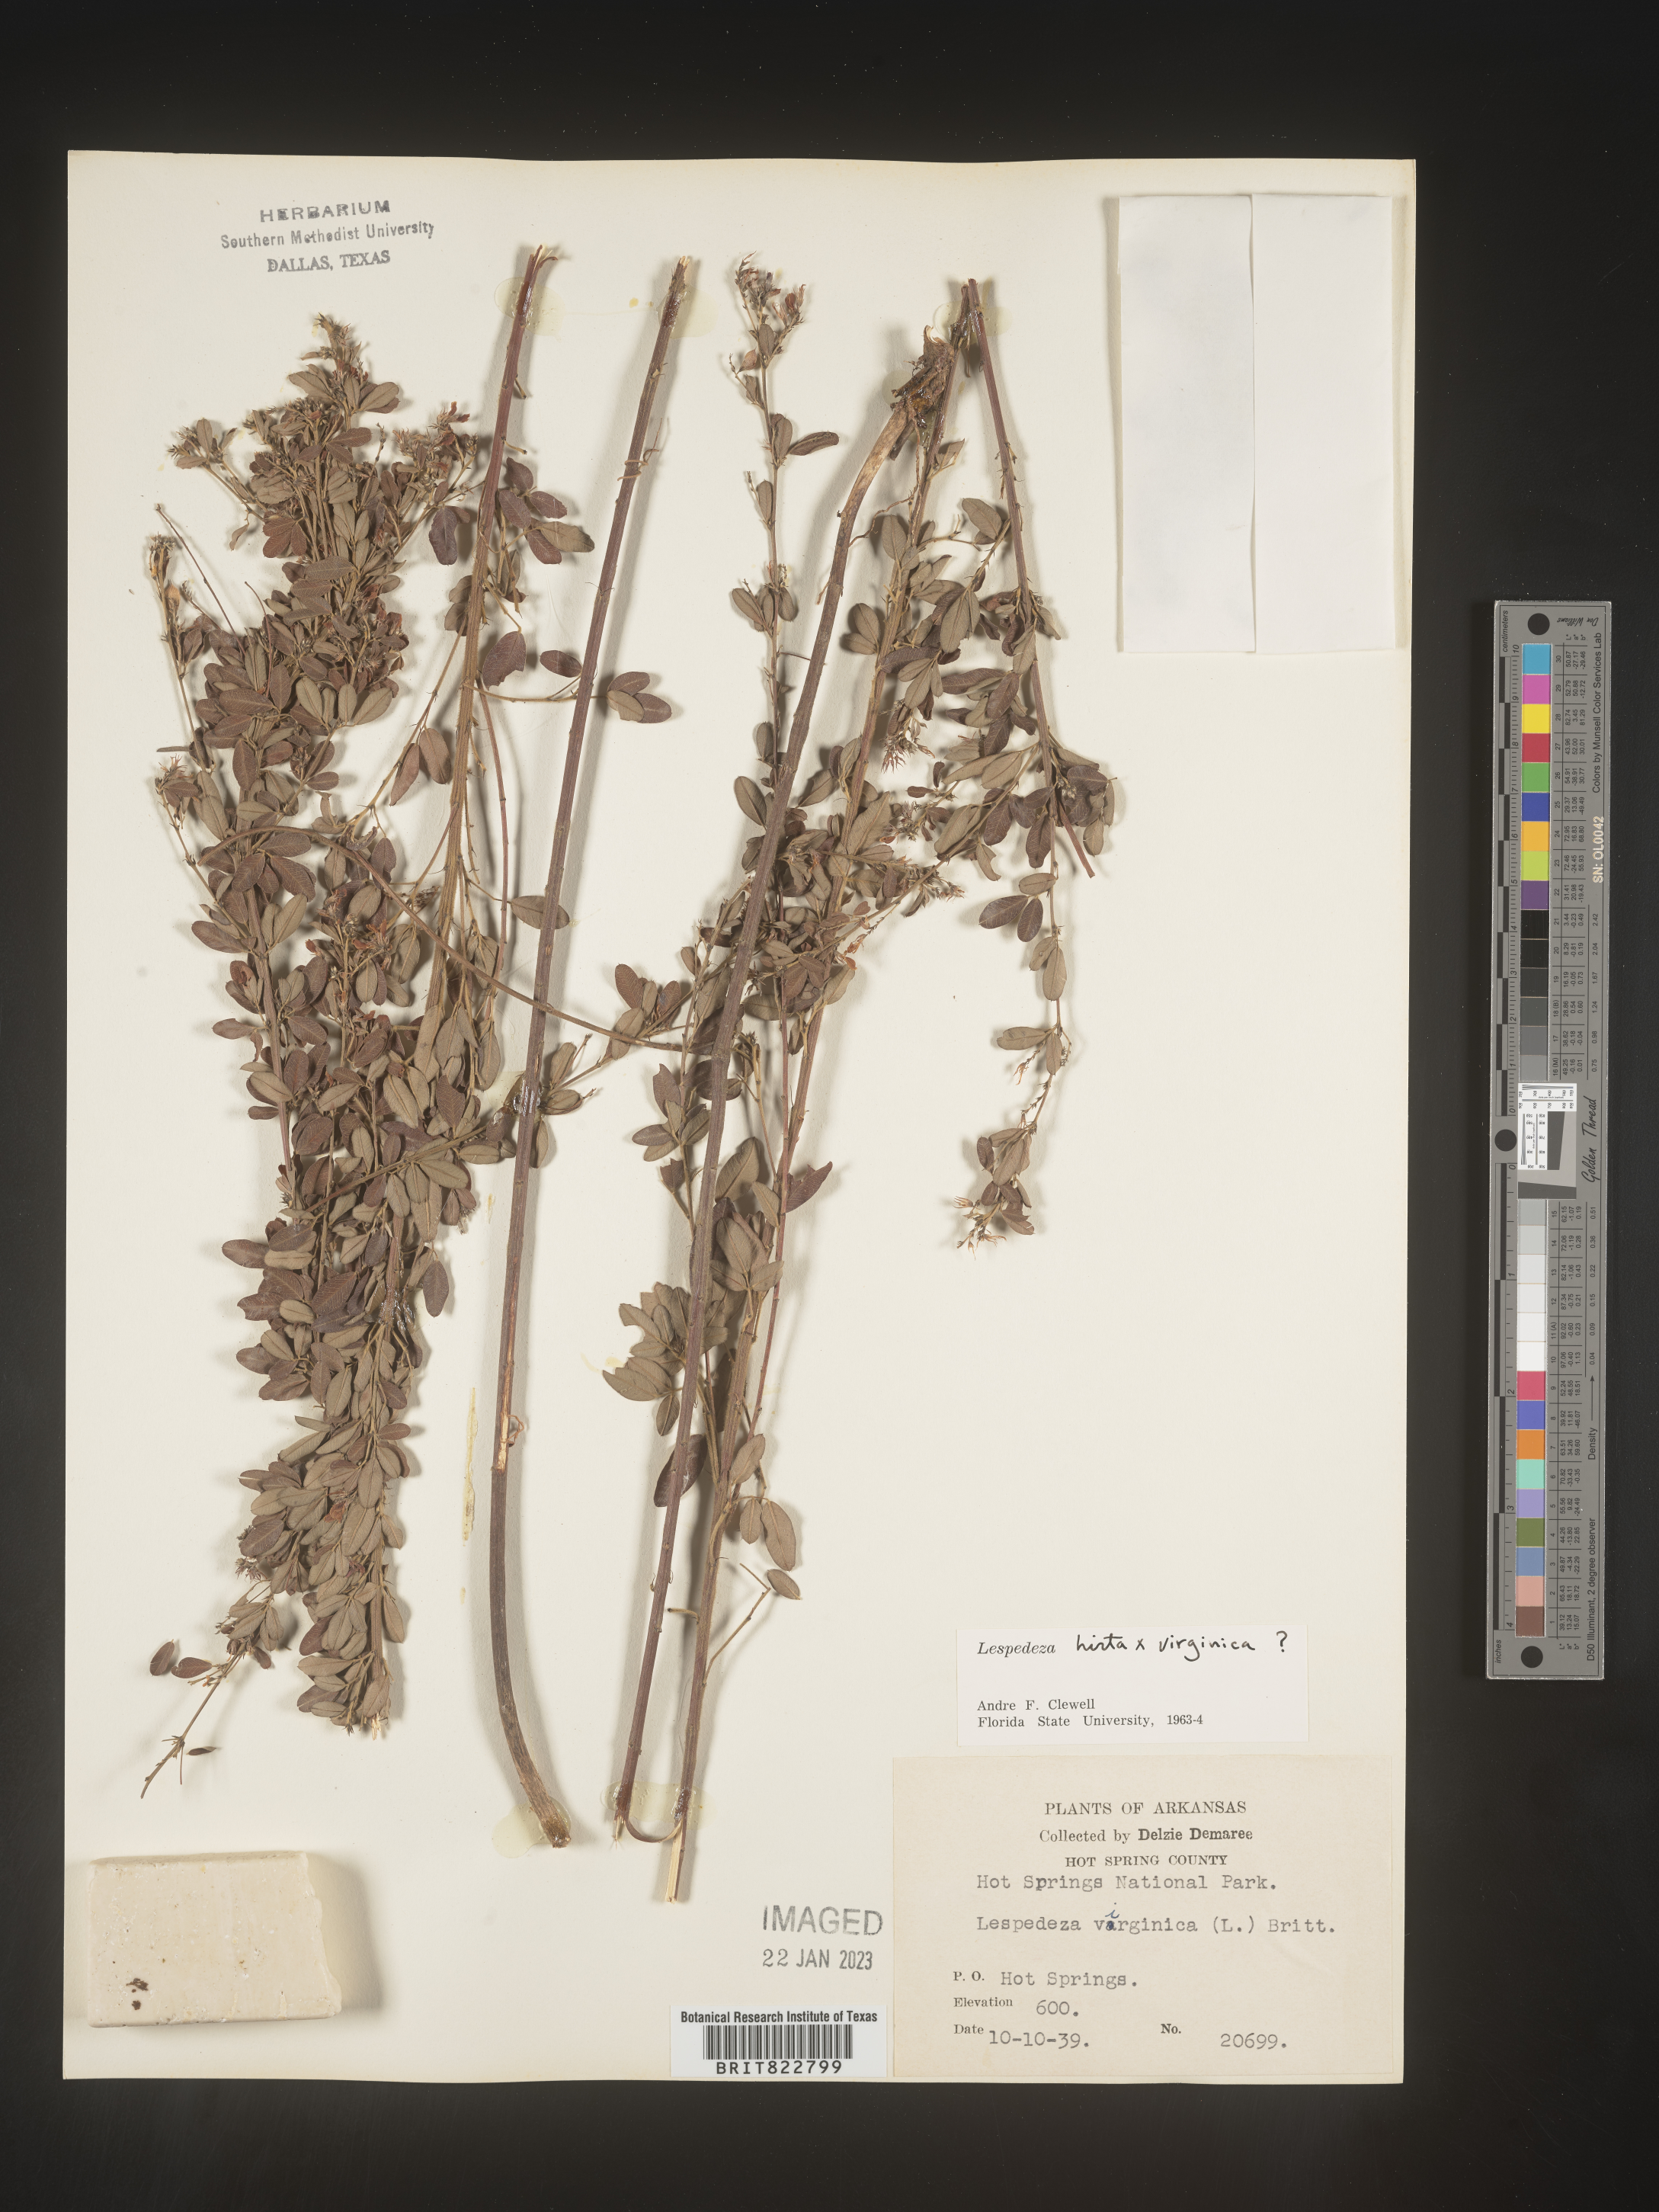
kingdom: Plantae
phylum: Tracheophyta
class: Magnoliopsida
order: Fabales
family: Fabaceae
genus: Lespedeza
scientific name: Lespedeza hirta
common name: Hairy lespedeza
